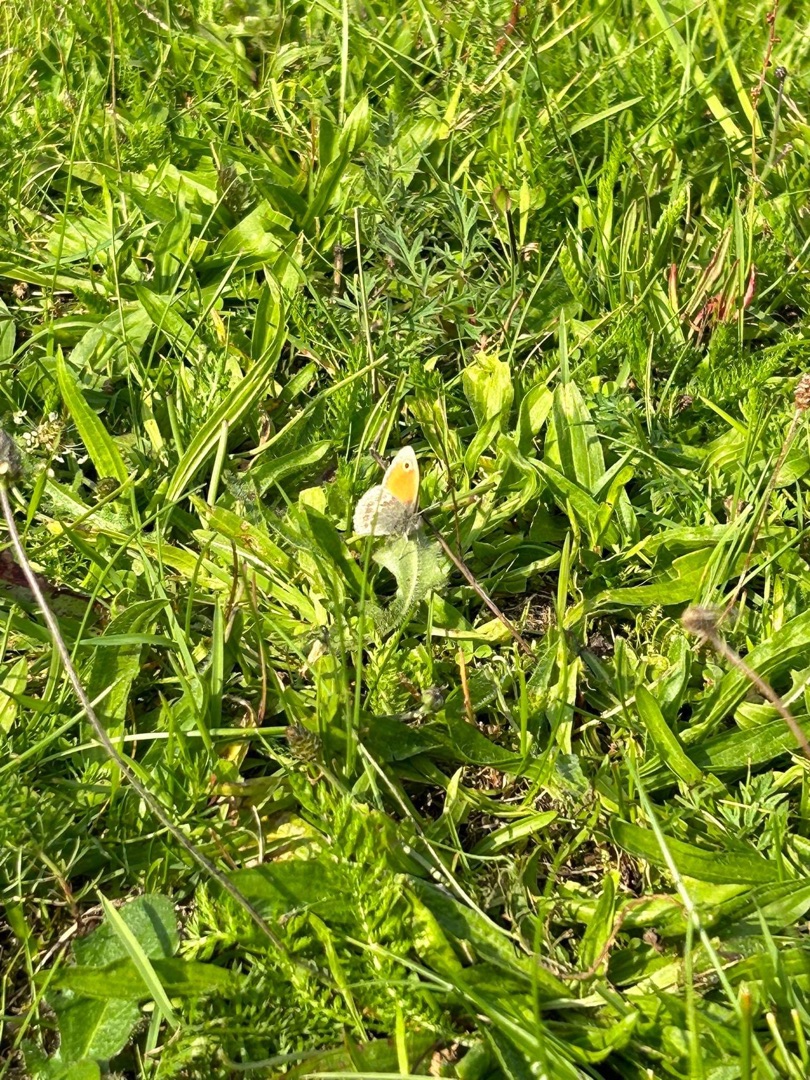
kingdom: Animalia
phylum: Arthropoda
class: Insecta
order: Lepidoptera
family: Nymphalidae
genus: Coenonympha
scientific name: Coenonympha pamphilus
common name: Okkergul randøje
